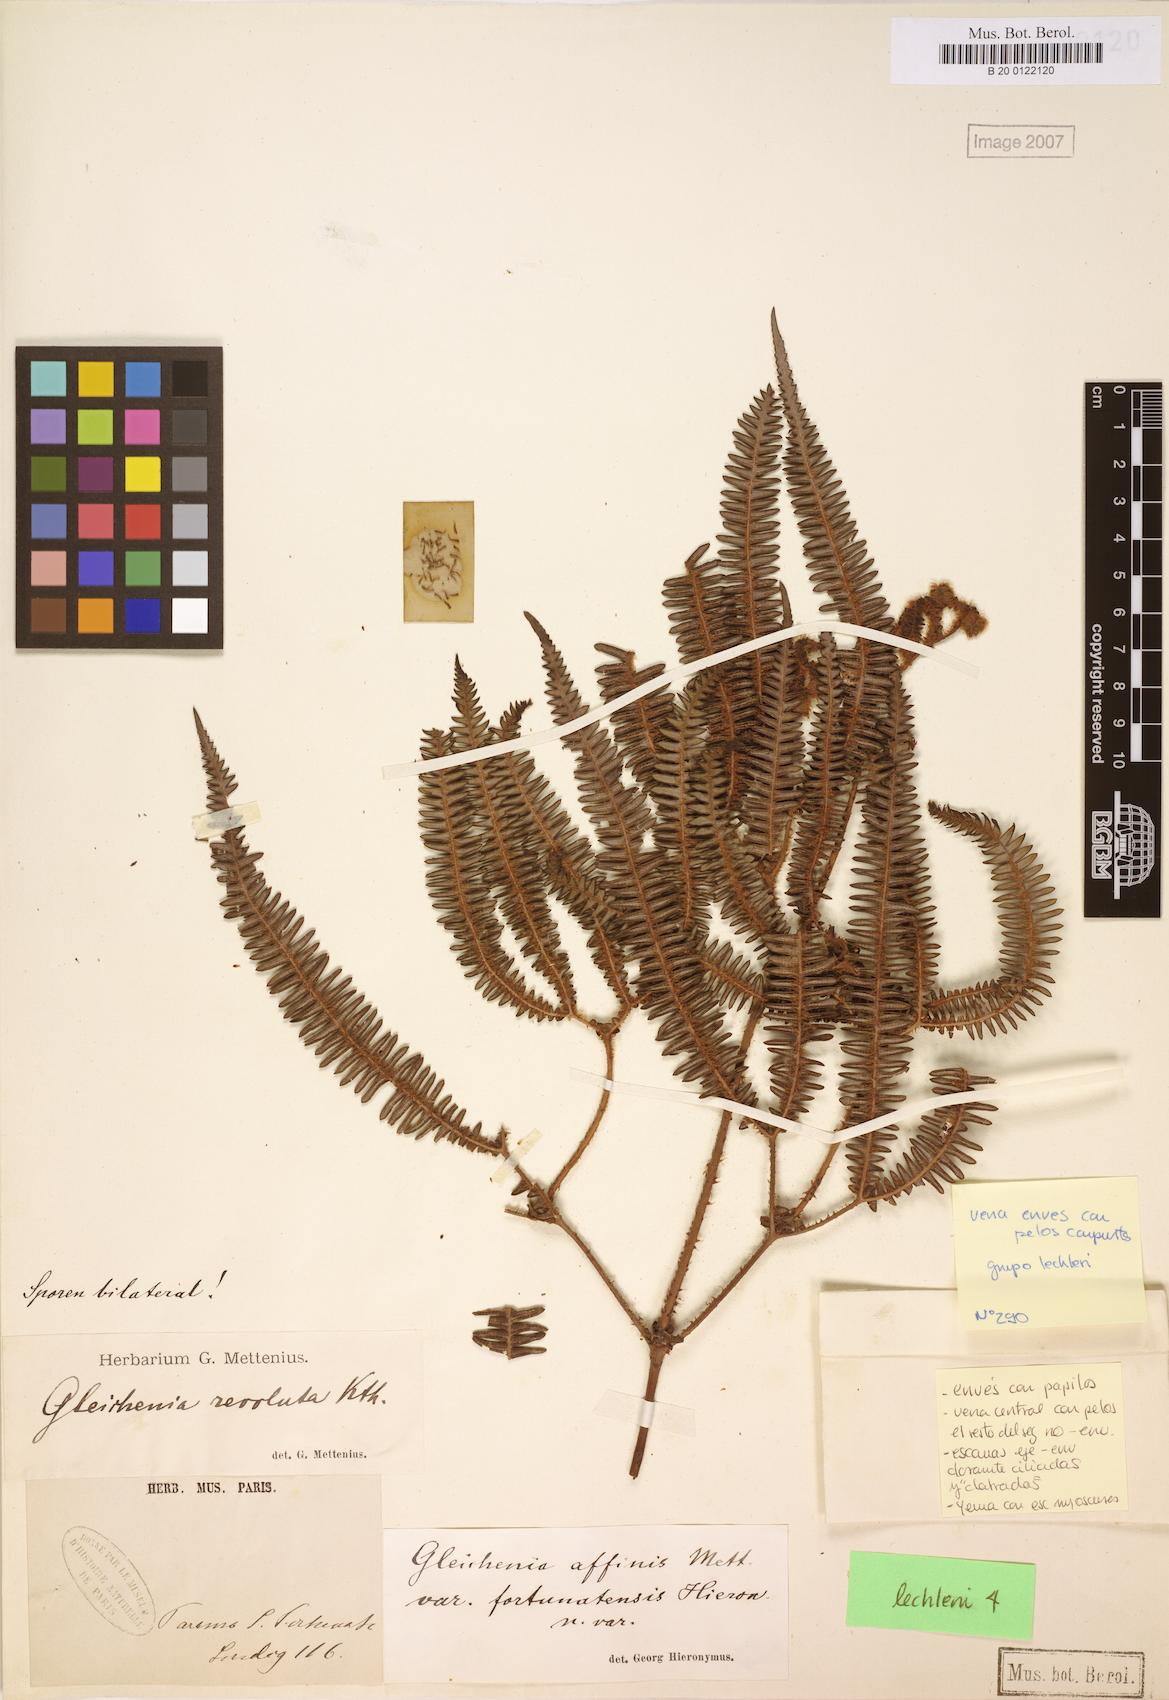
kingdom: Plantae
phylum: Tracheophyta
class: Polypodiopsida
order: Gleicheniales
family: Gleicheniaceae
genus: Sticherus
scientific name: Sticherus revolutus
